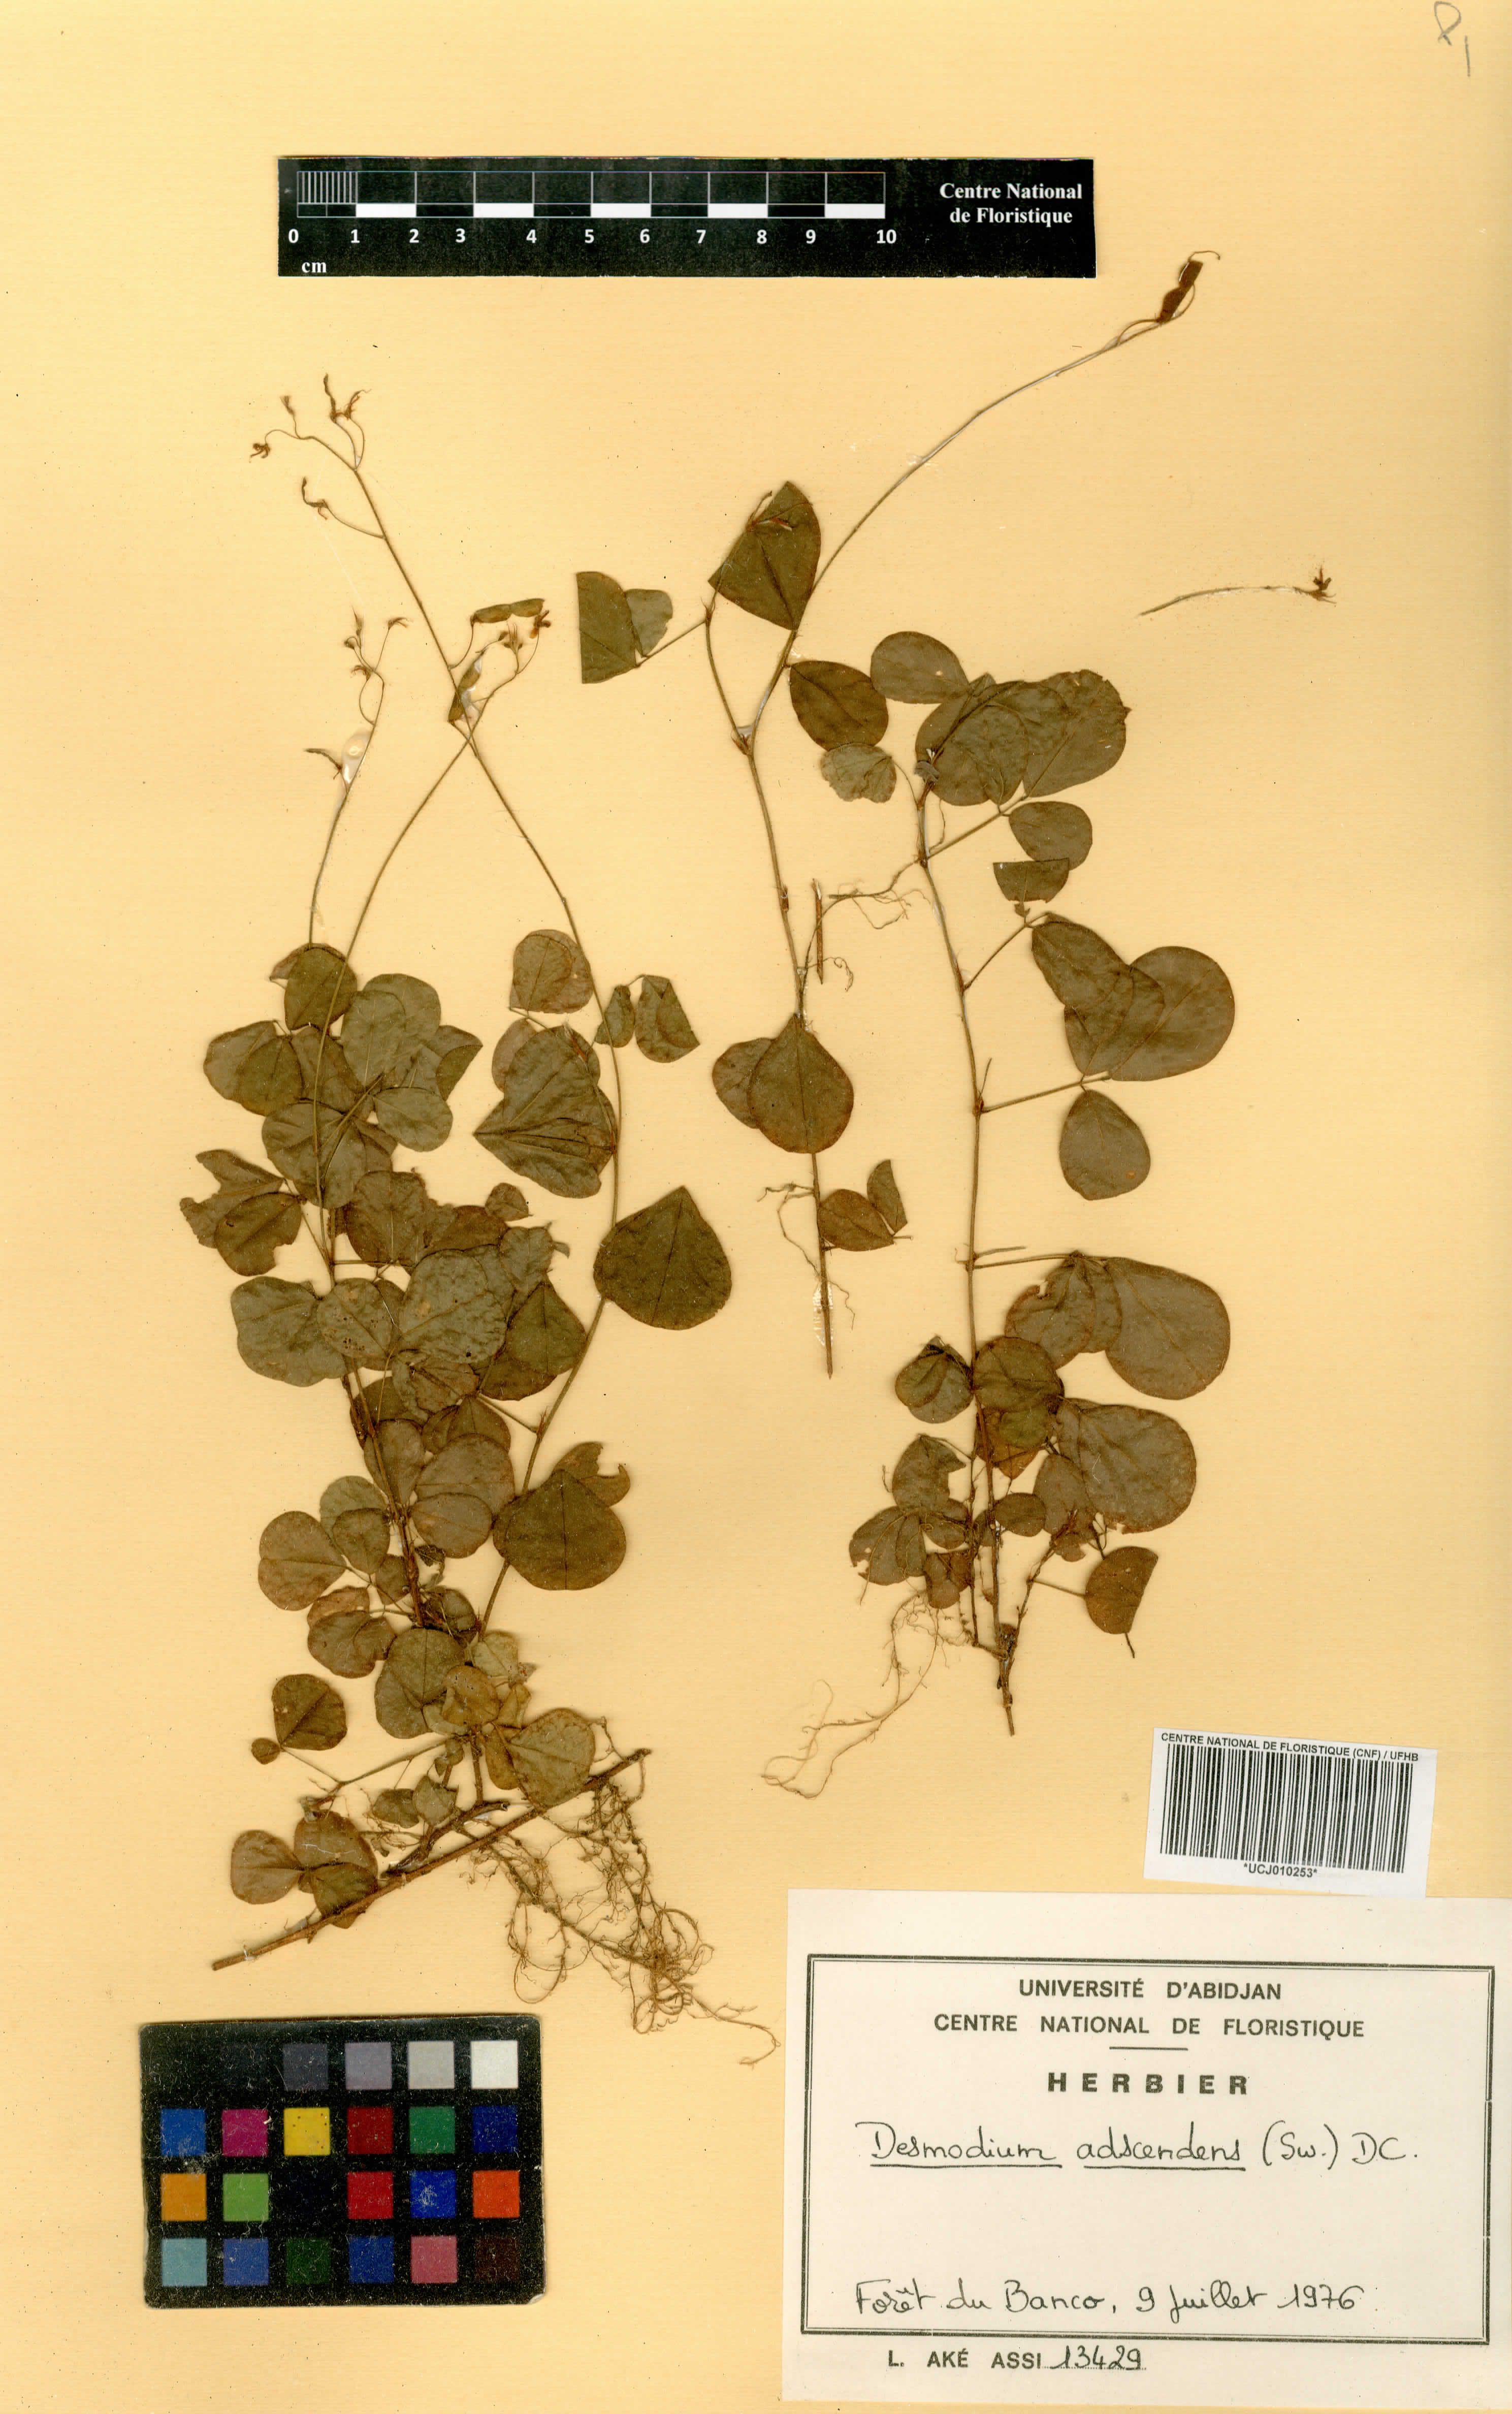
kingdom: Plantae
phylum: Tracheophyta
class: Magnoliopsida
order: Fabales
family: Fabaceae
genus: Grona
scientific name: Grona adscendens
